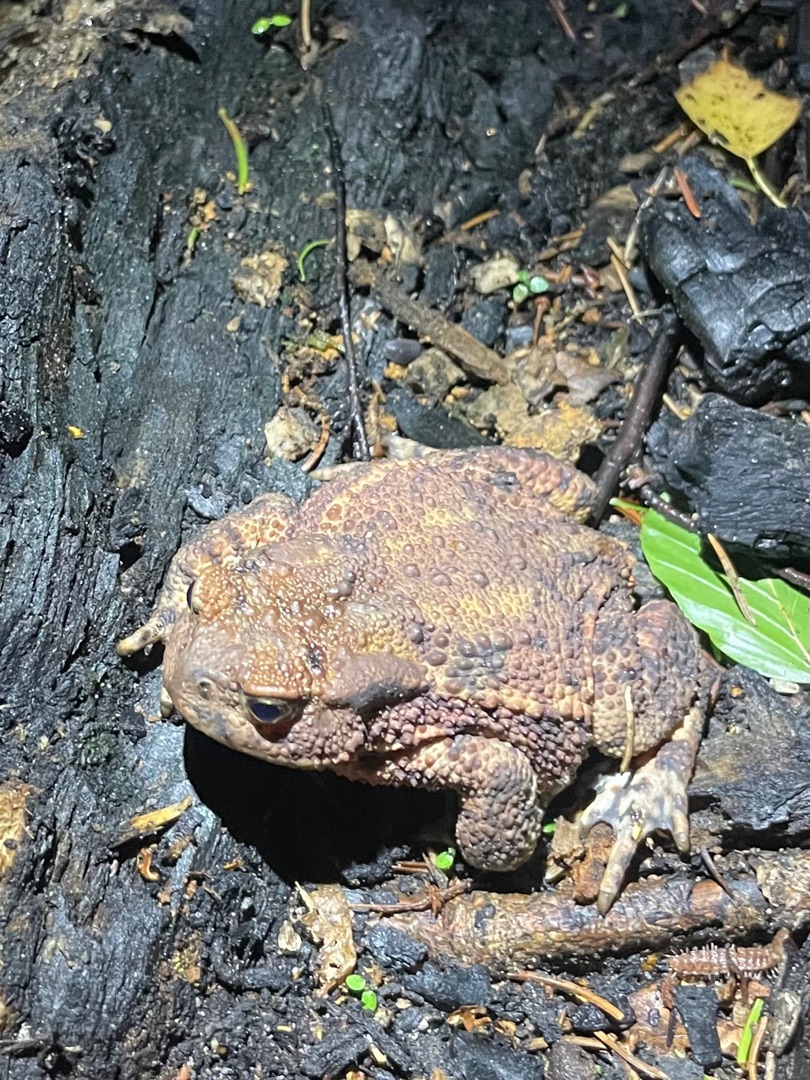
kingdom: Animalia
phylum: Chordata
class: Amphibia
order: Anura
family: Bufonidae
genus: Bufo
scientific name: Bufo bufo
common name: Skrubtudse
